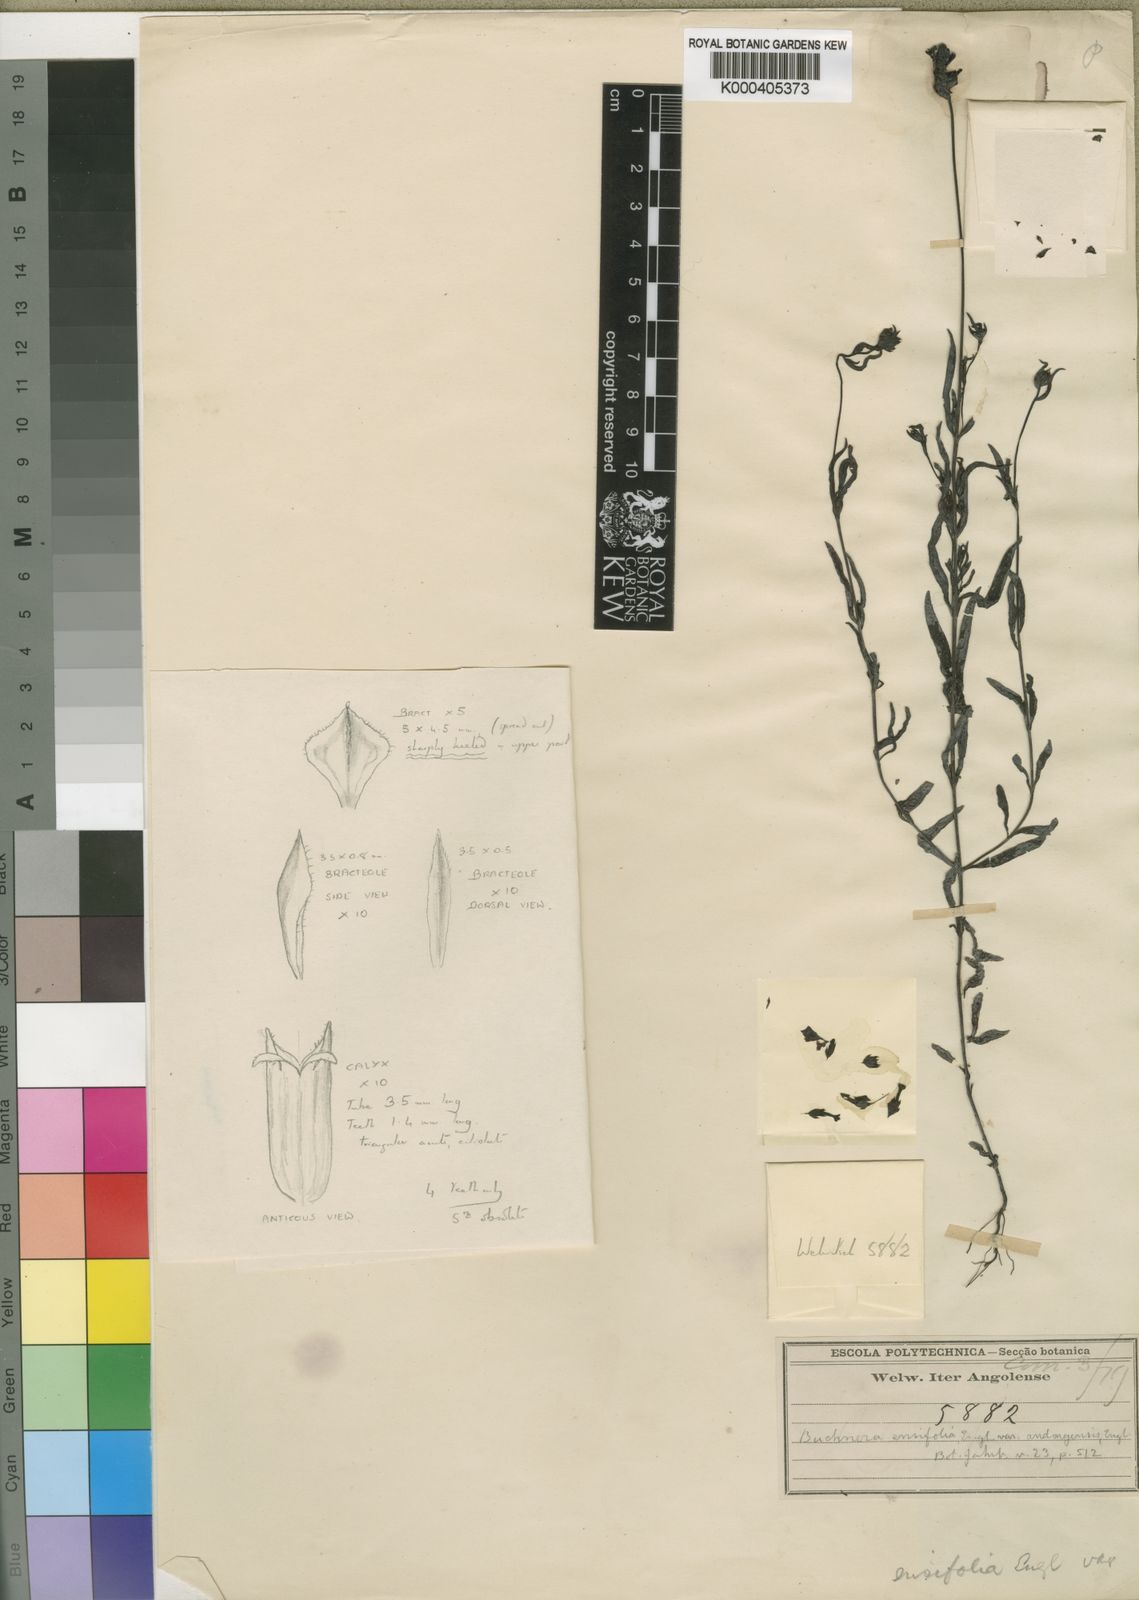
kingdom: Plantae
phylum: Tracheophyta
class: Magnoliopsida
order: Lamiales
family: Orobanchaceae
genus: Buchnera
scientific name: Buchnera ensifolia
